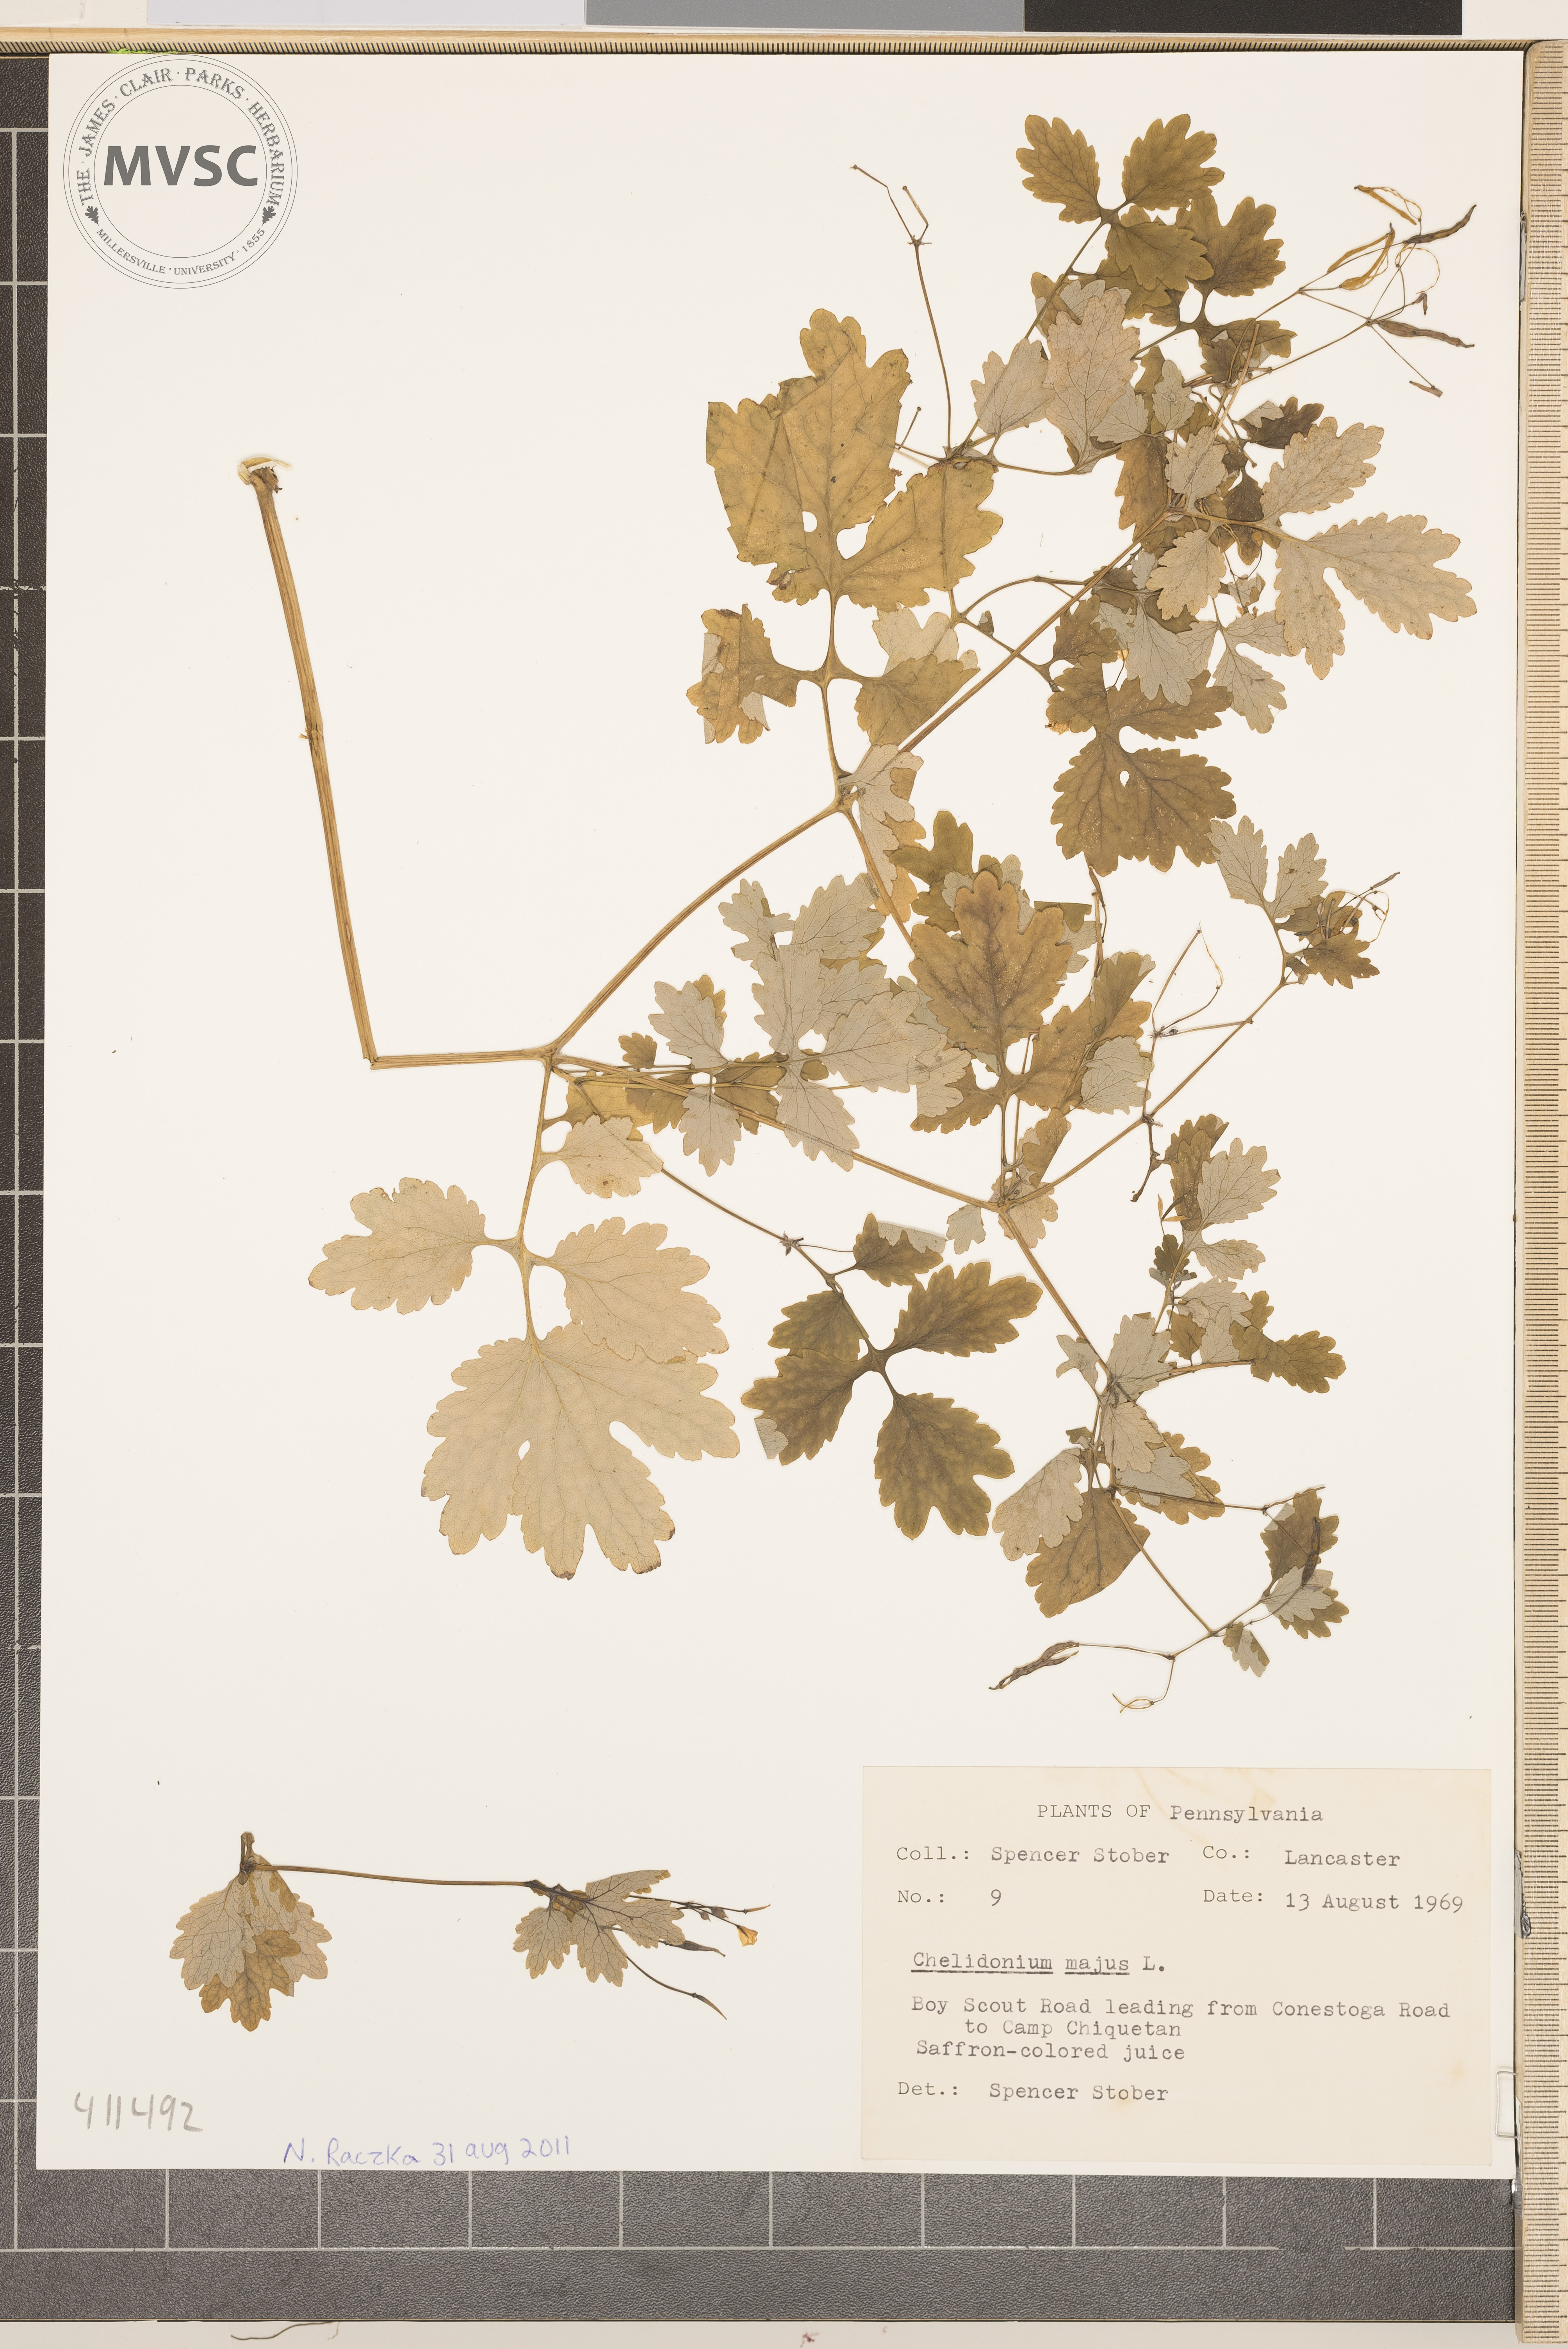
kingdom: Plantae
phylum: Tracheophyta
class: Magnoliopsida
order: Ranunculales
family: Papaveraceae
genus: Chelidonium
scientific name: Chelidonium majus
